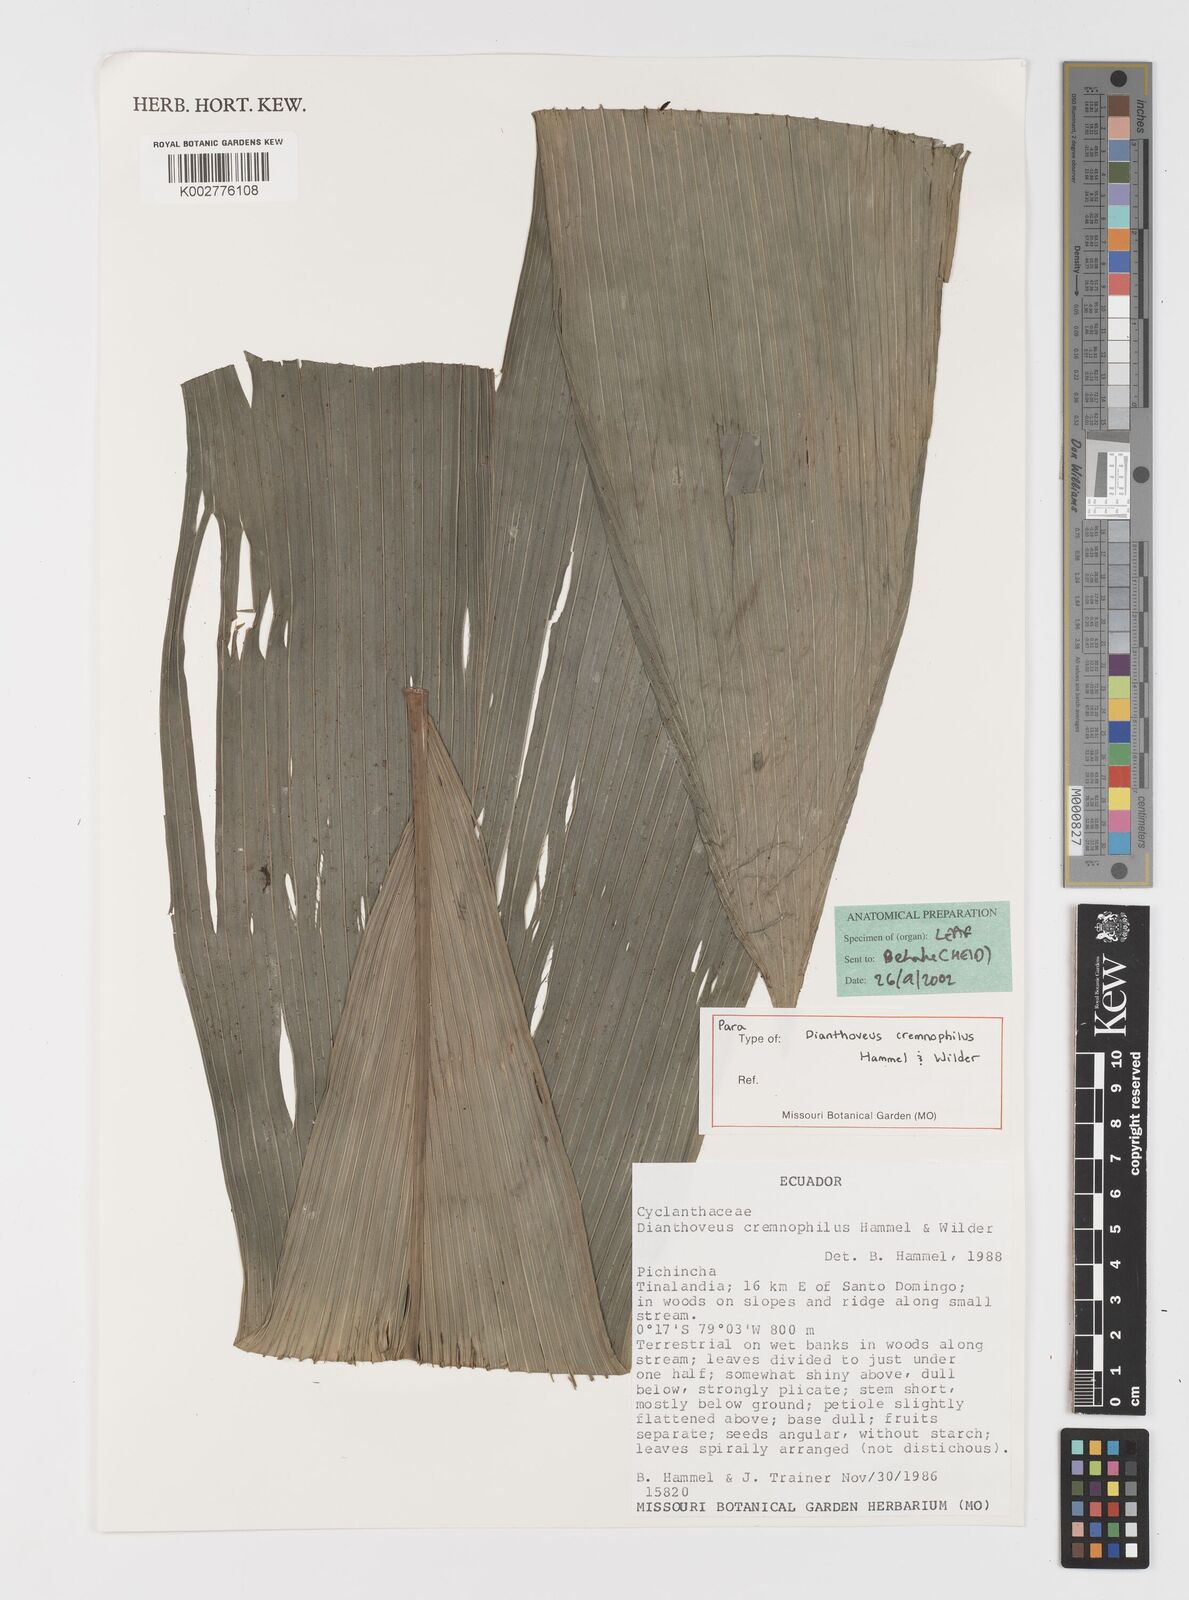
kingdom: Plantae
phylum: Tracheophyta
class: Liliopsida
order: Pandanales
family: Cyclanthaceae
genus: Dianthoveus
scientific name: Dianthoveus cremnophilus
